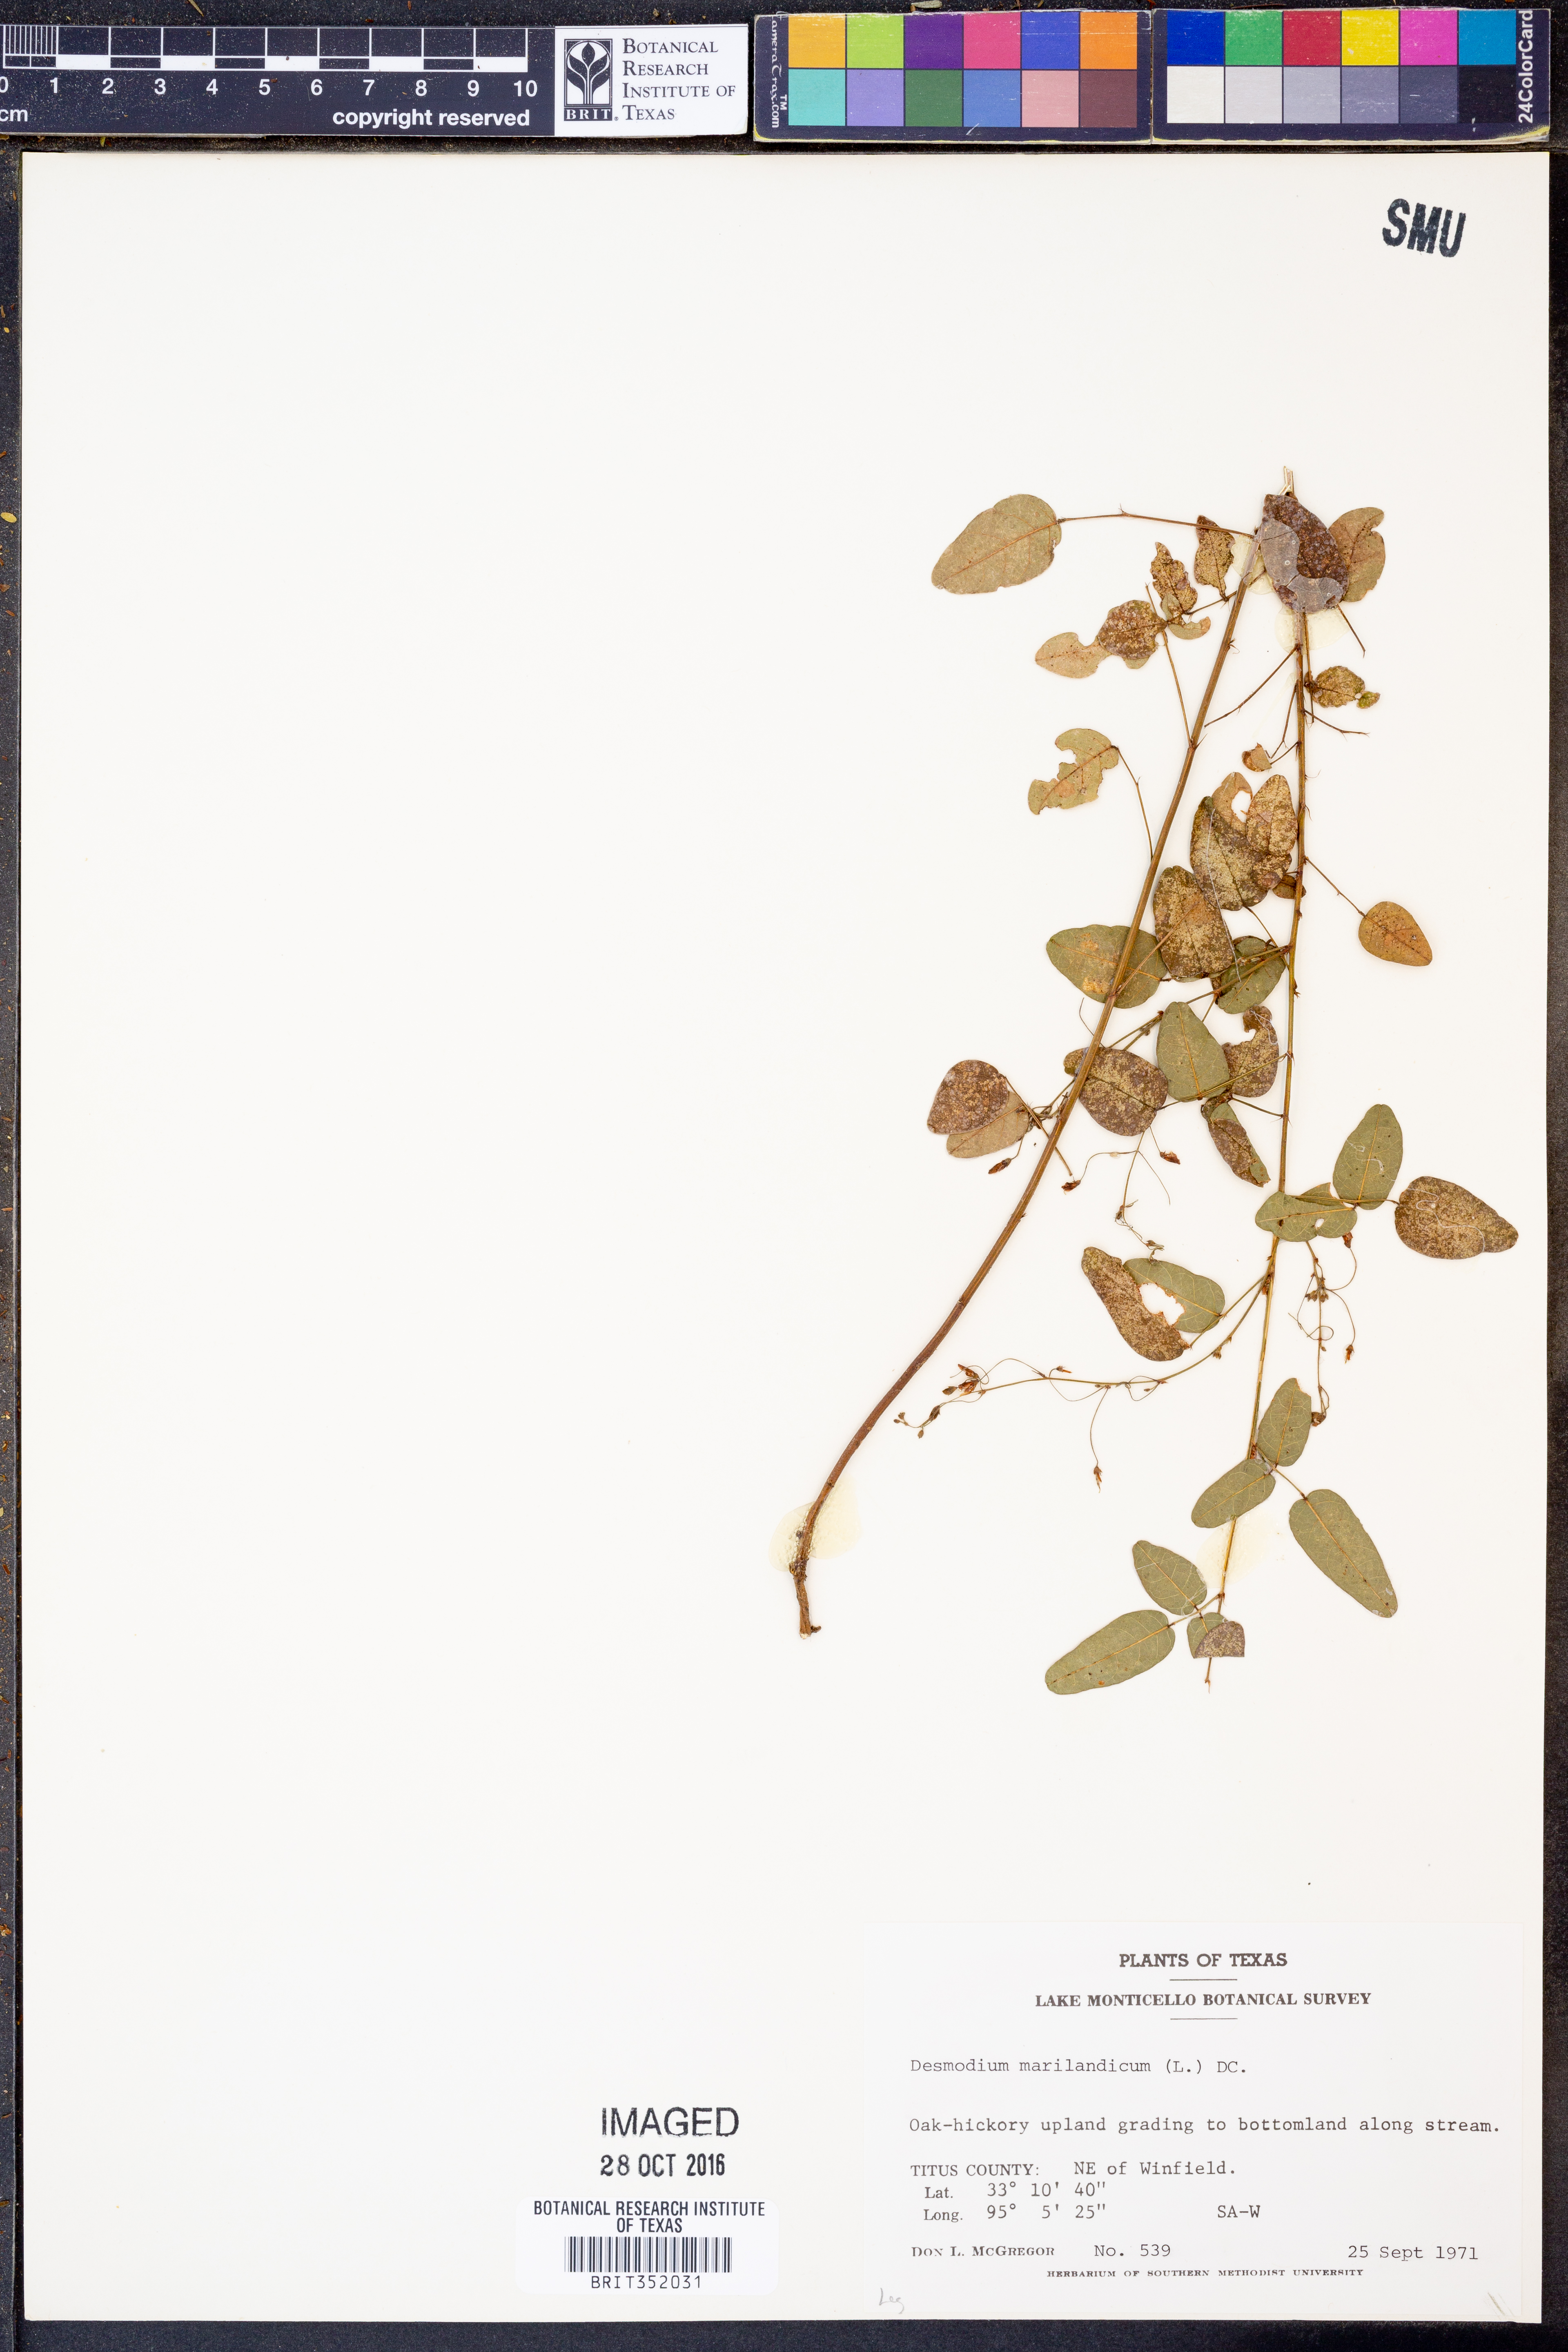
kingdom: Plantae
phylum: Tracheophyta
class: Magnoliopsida
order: Fabales
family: Fabaceae
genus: Desmodium
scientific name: Desmodium marilandicum
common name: Maryland tick-trefoil
